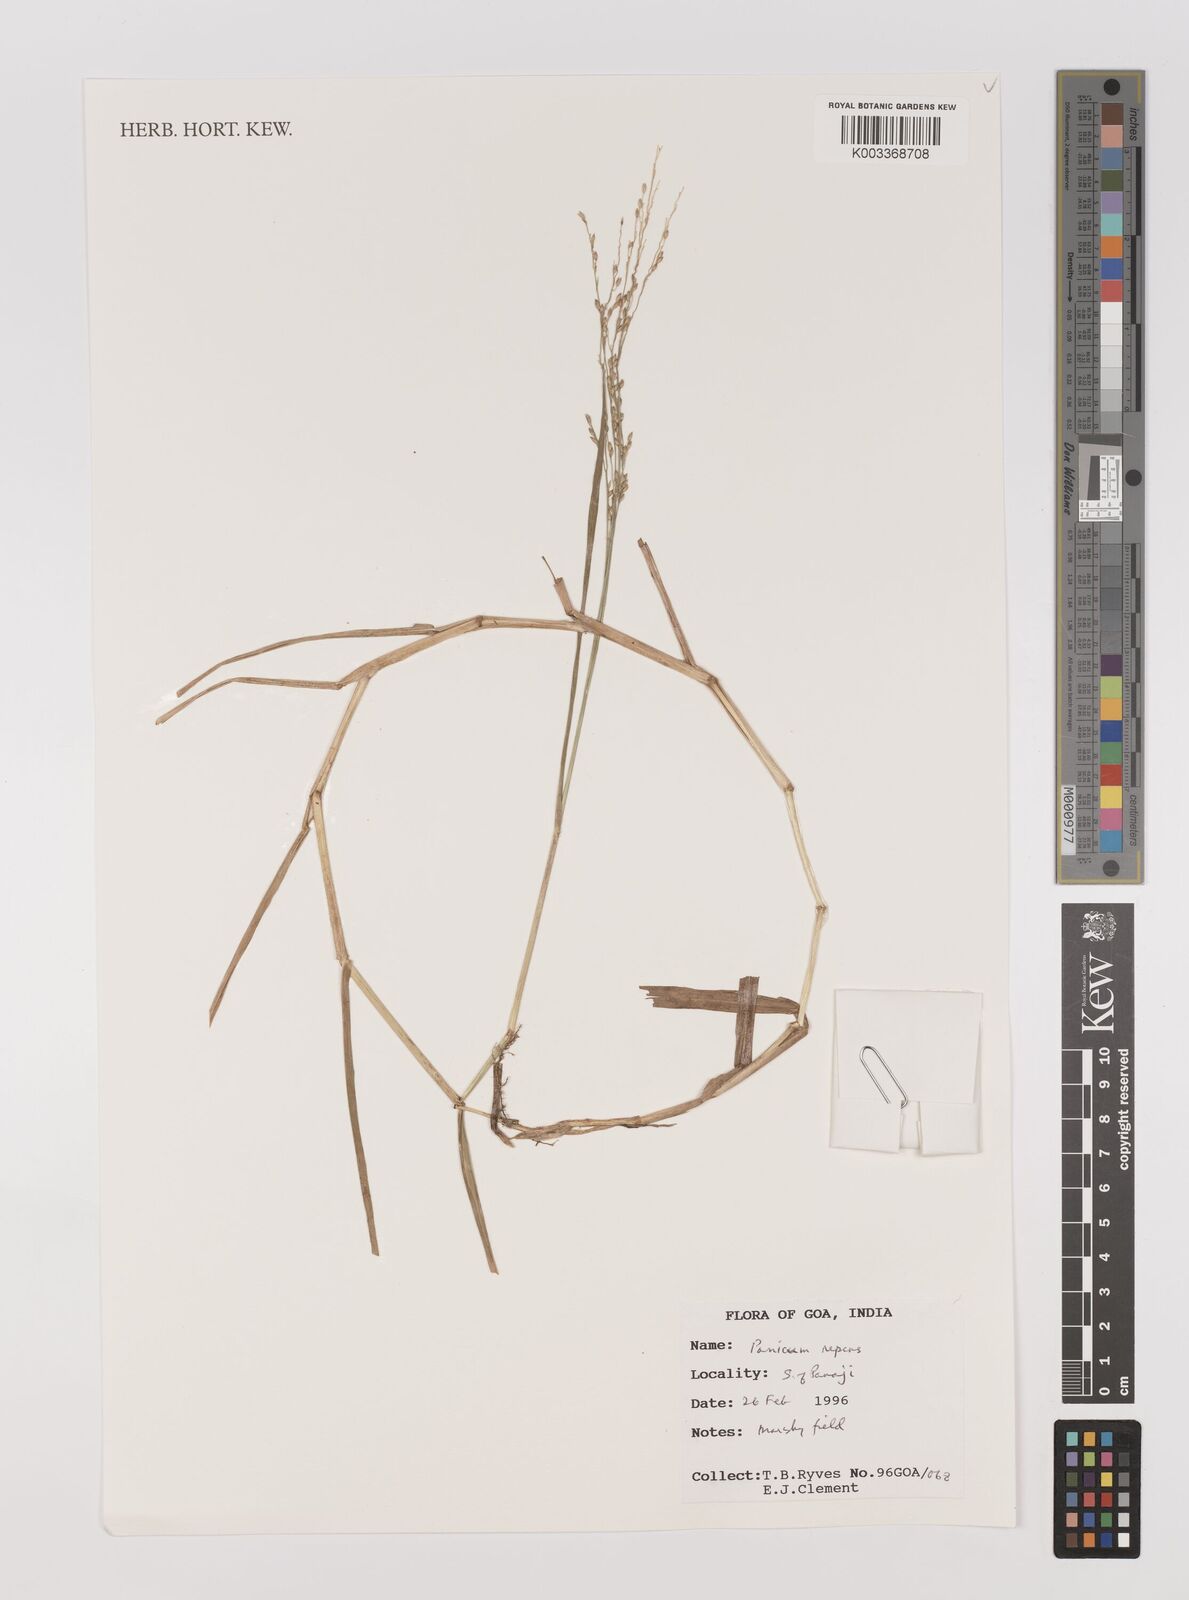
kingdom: Plantae
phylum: Tracheophyta
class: Liliopsida
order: Poales
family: Poaceae
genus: Panicum
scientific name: Panicum repens
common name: Torpedo grass
